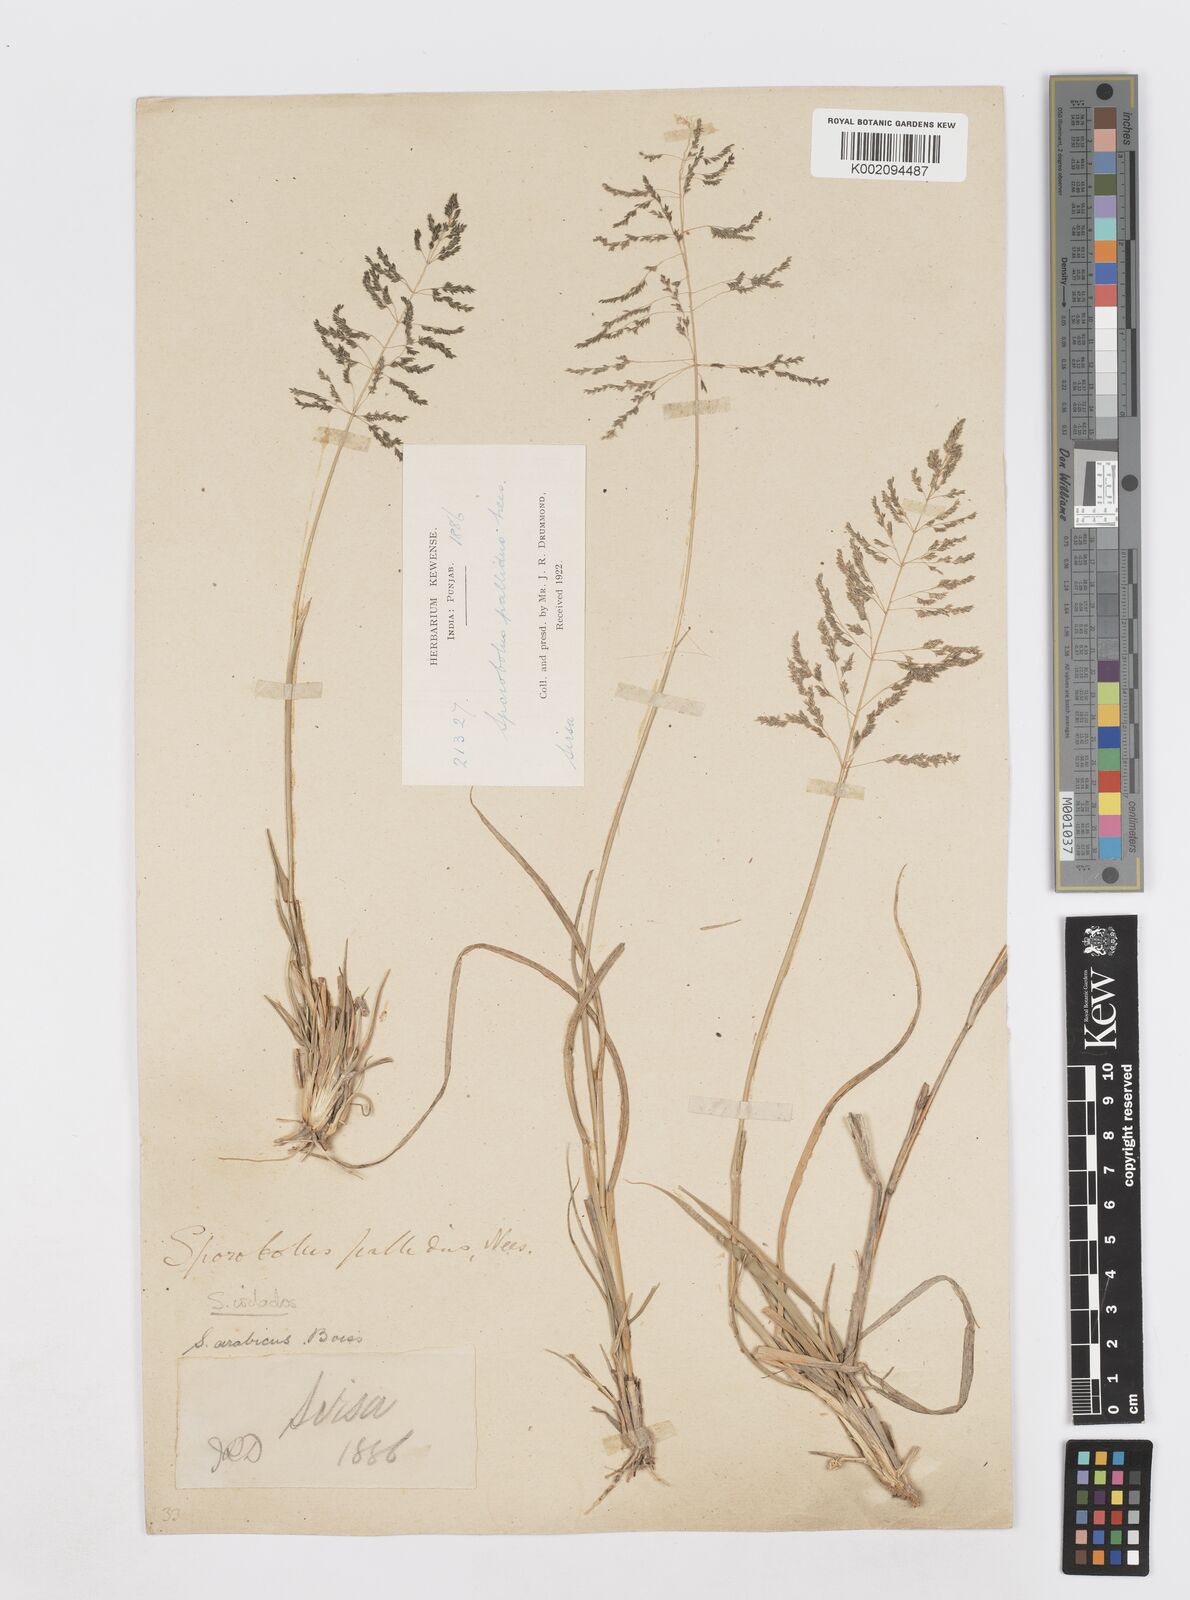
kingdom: Plantae
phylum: Tracheophyta
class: Liliopsida
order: Poales
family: Poaceae
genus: Sporobolus
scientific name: Sporobolus ioclados
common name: Pan dropseed
